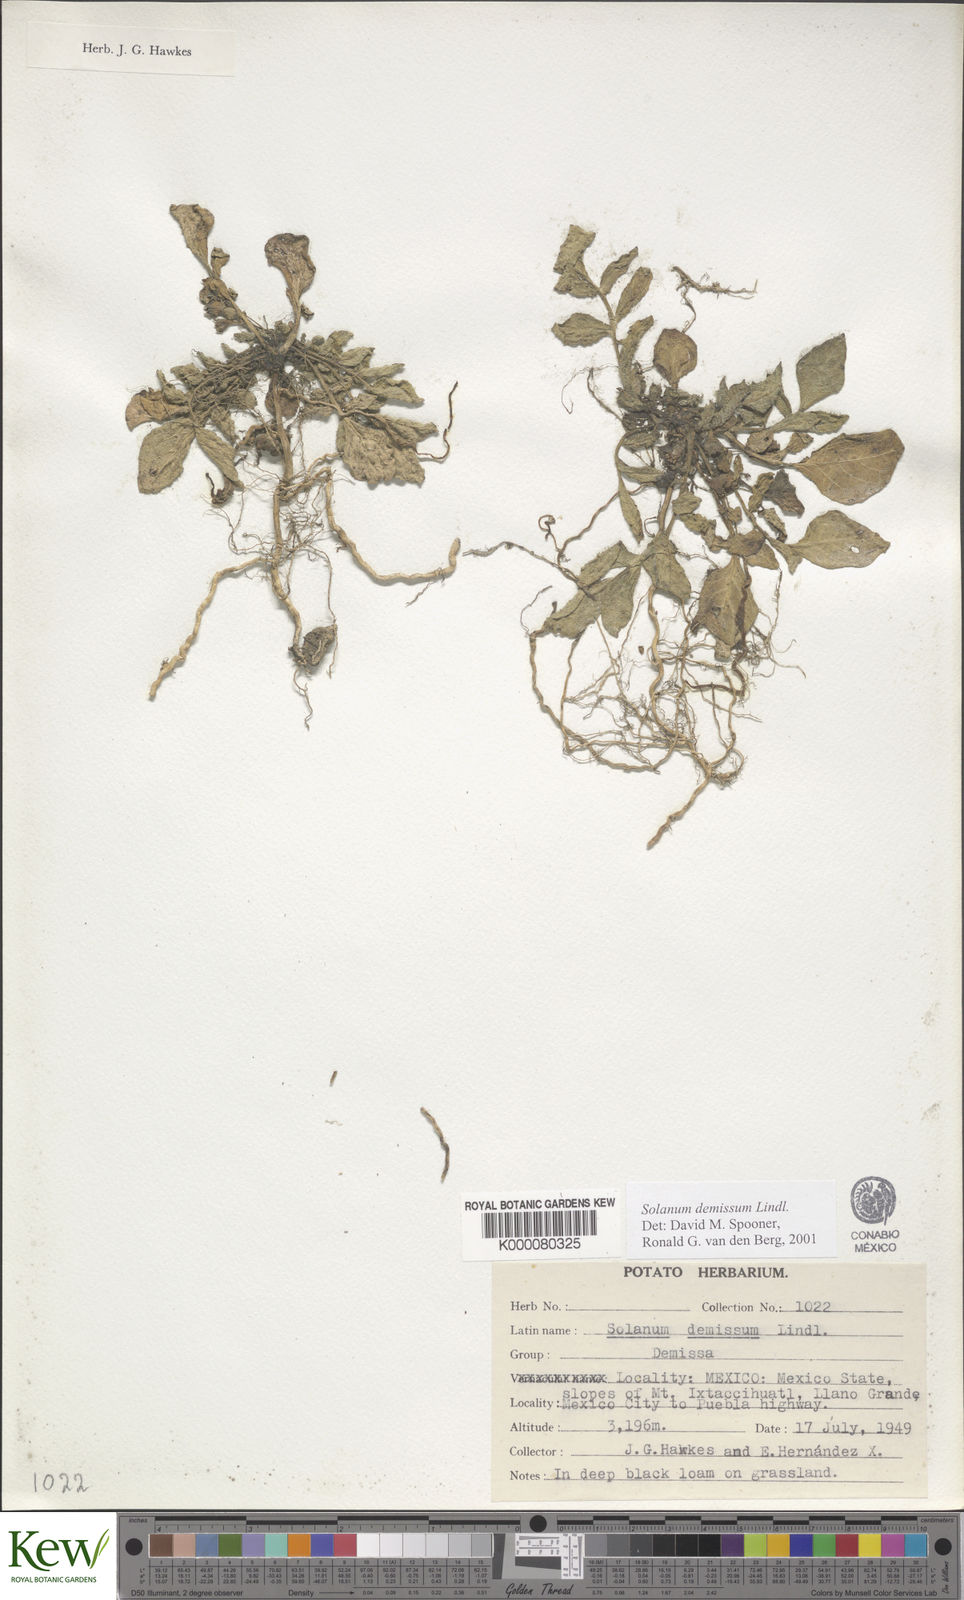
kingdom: Plantae
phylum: Tracheophyta
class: Magnoliopsida
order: Solanales
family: Solanaceae
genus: Solanum
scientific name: Solanum demissum
